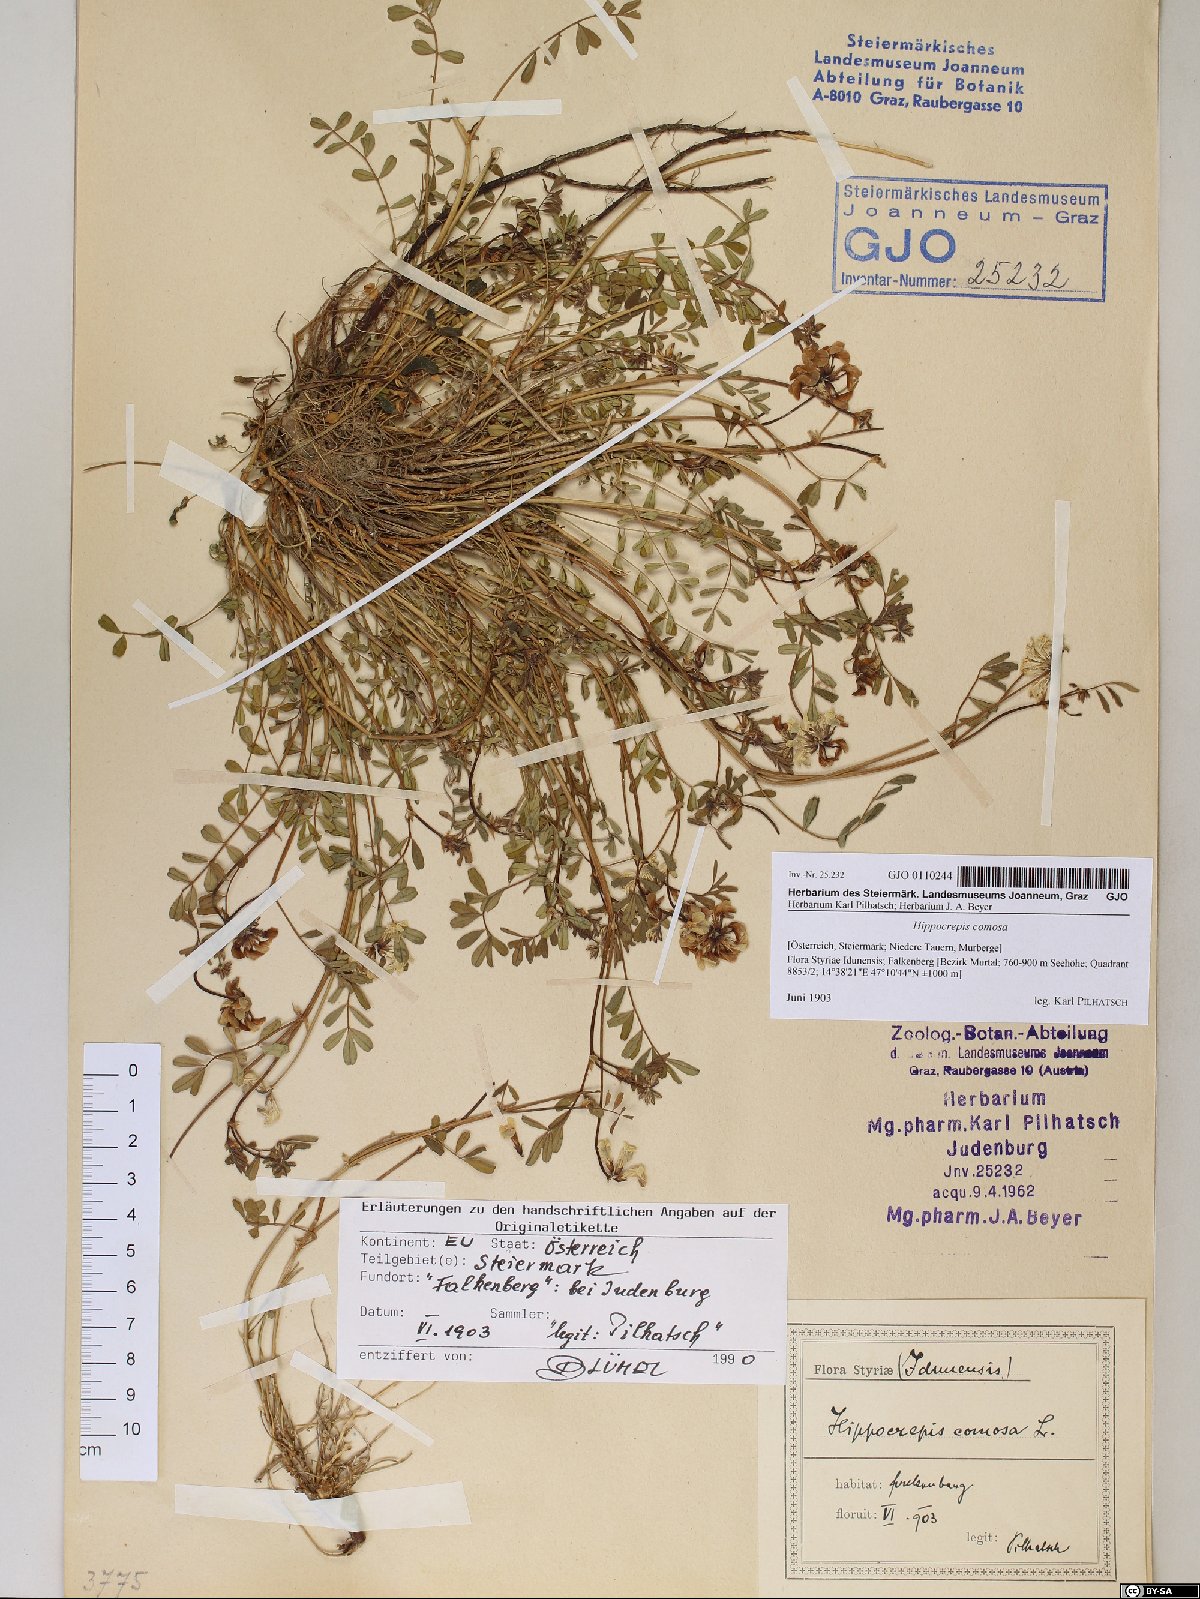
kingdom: Plantae
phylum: Tracheophyta
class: Magnoliopsida
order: Fabales
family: Fabaceae
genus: Hippocrepis
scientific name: Hippocrepis comosa
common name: Horseshoe vetch
